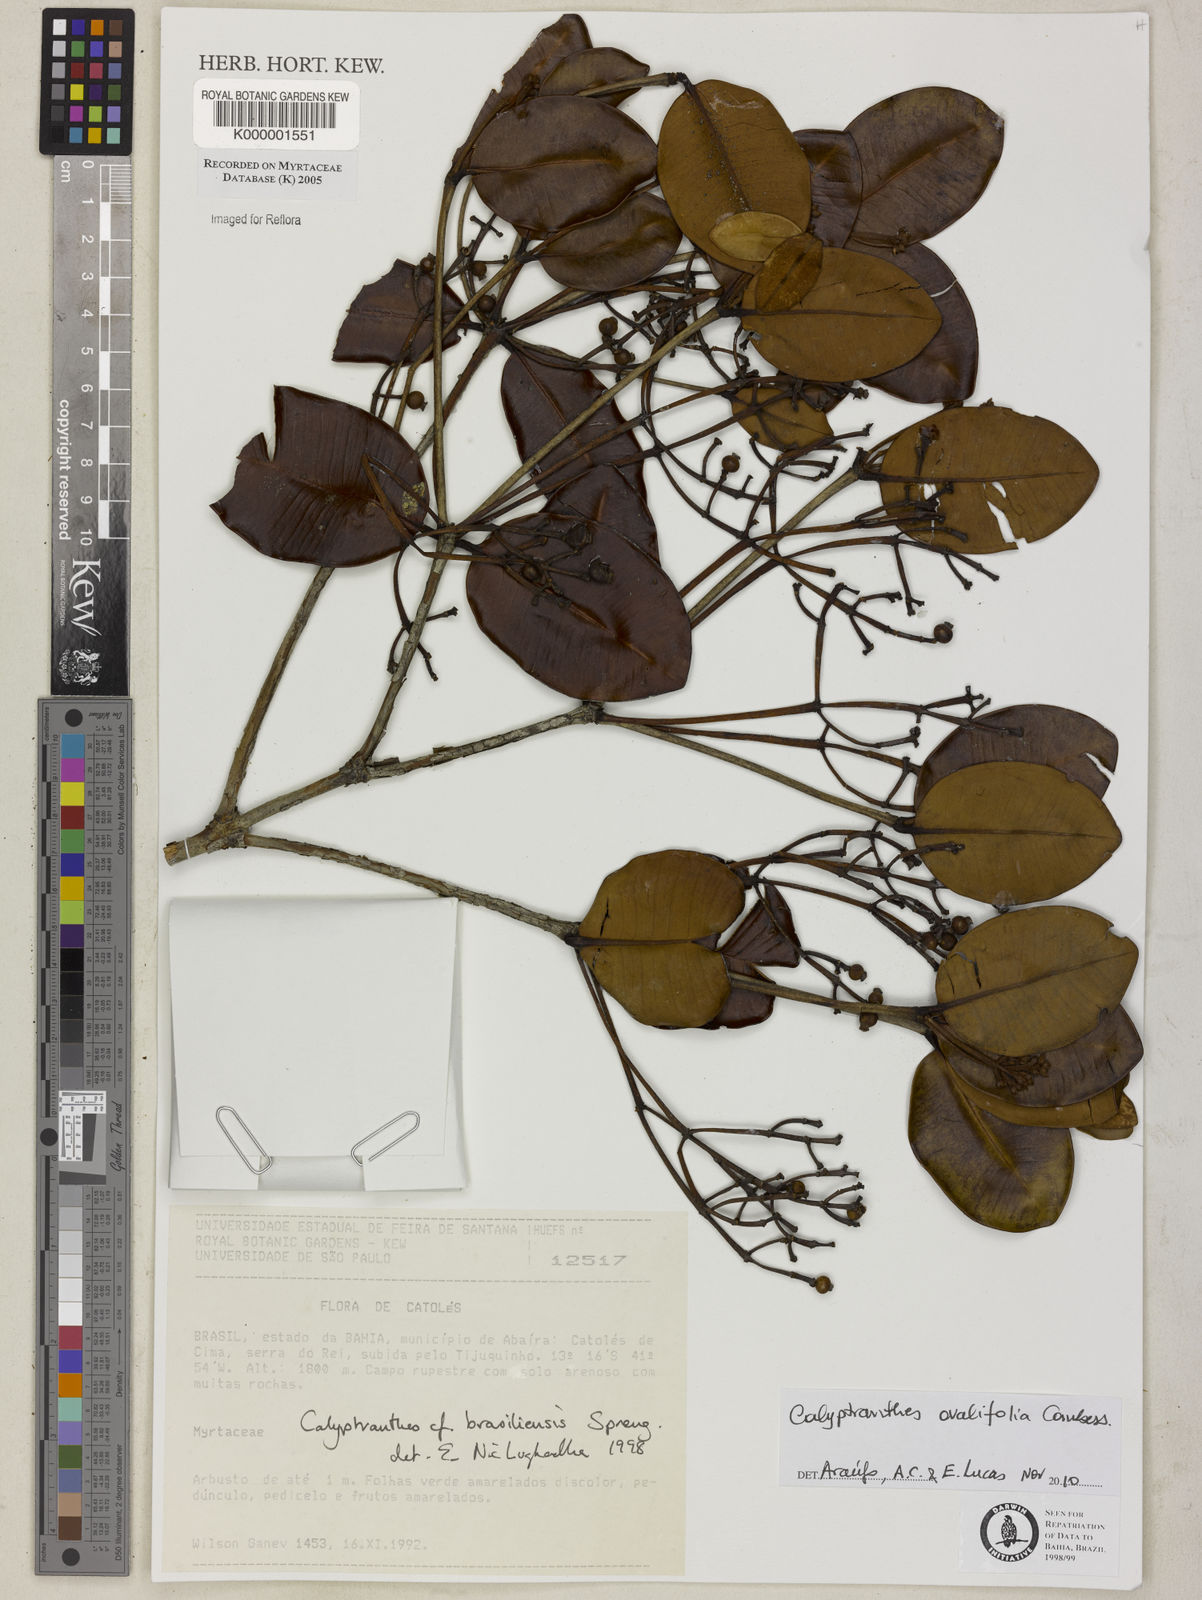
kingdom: Plantae
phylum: Tracheophyta
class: Magnoliopsida
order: Myrtales
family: Myrtaceae
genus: Myrcia
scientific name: Myrcia neobrasiliensis
